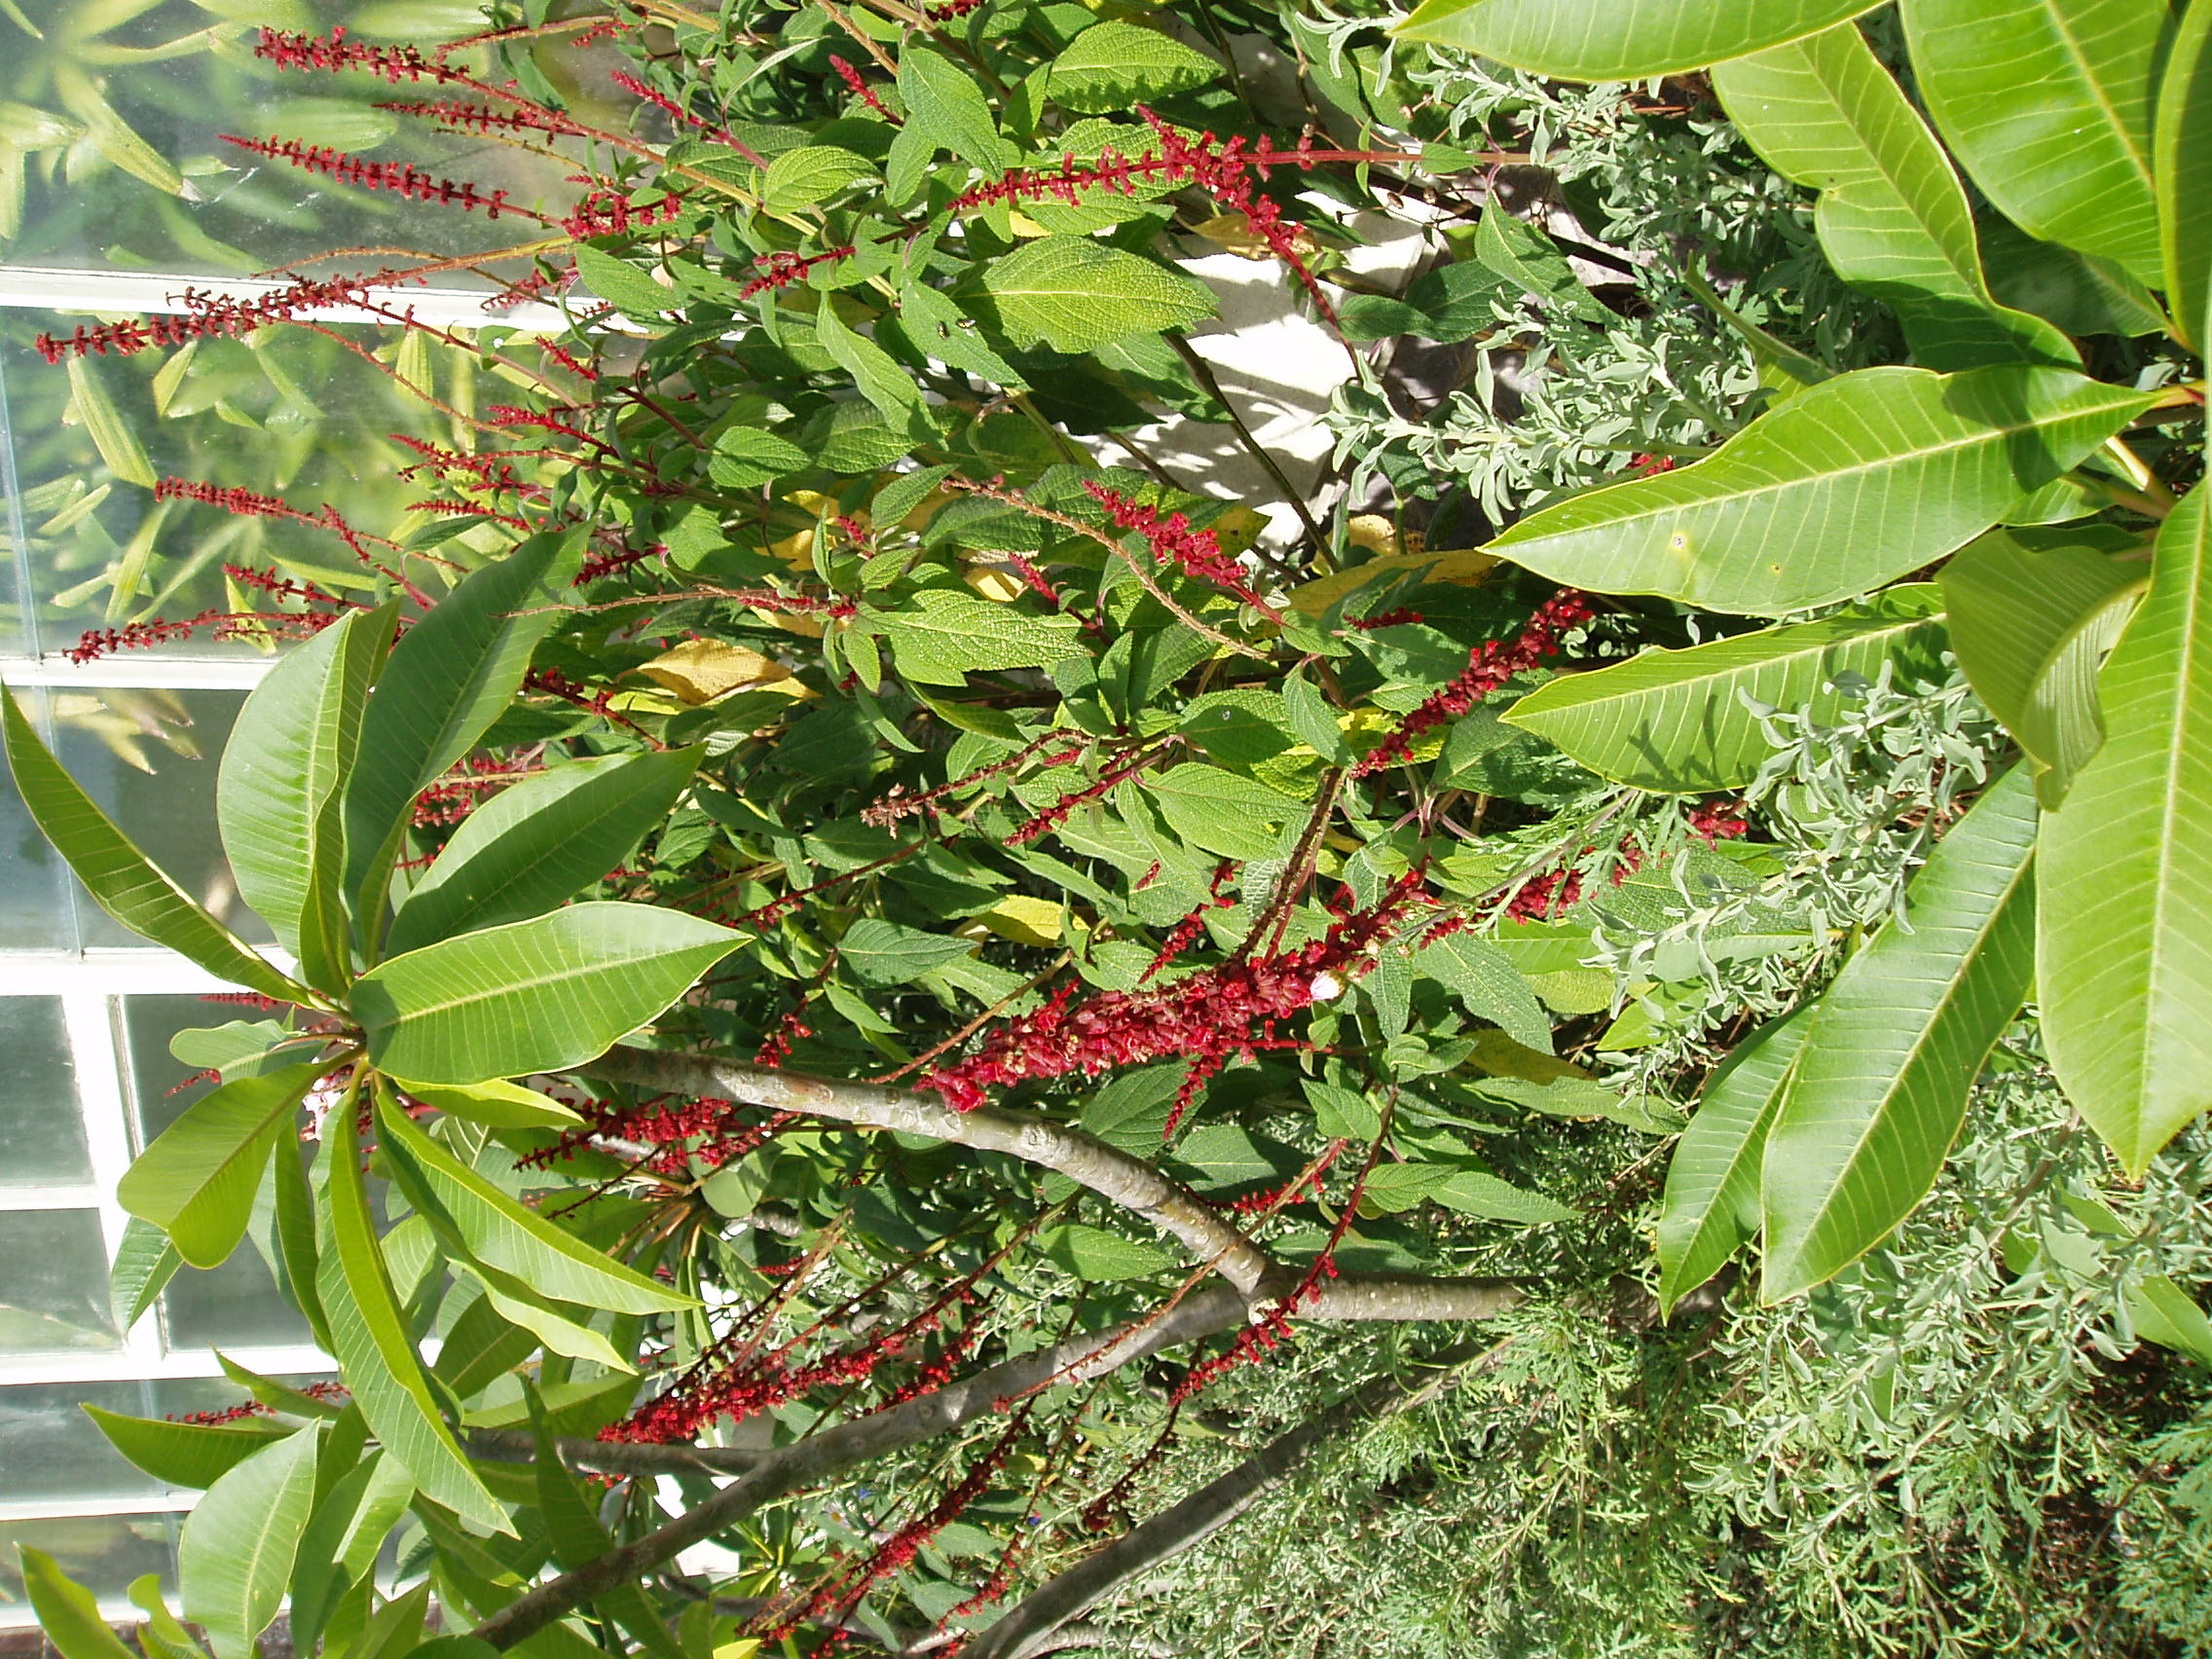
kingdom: Plantae
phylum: Tracheophyta
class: Magnoliopsida
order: Lamiales
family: Lamiaceae
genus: Salvia
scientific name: Salvia confertiflora
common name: Sabra-spike sage
